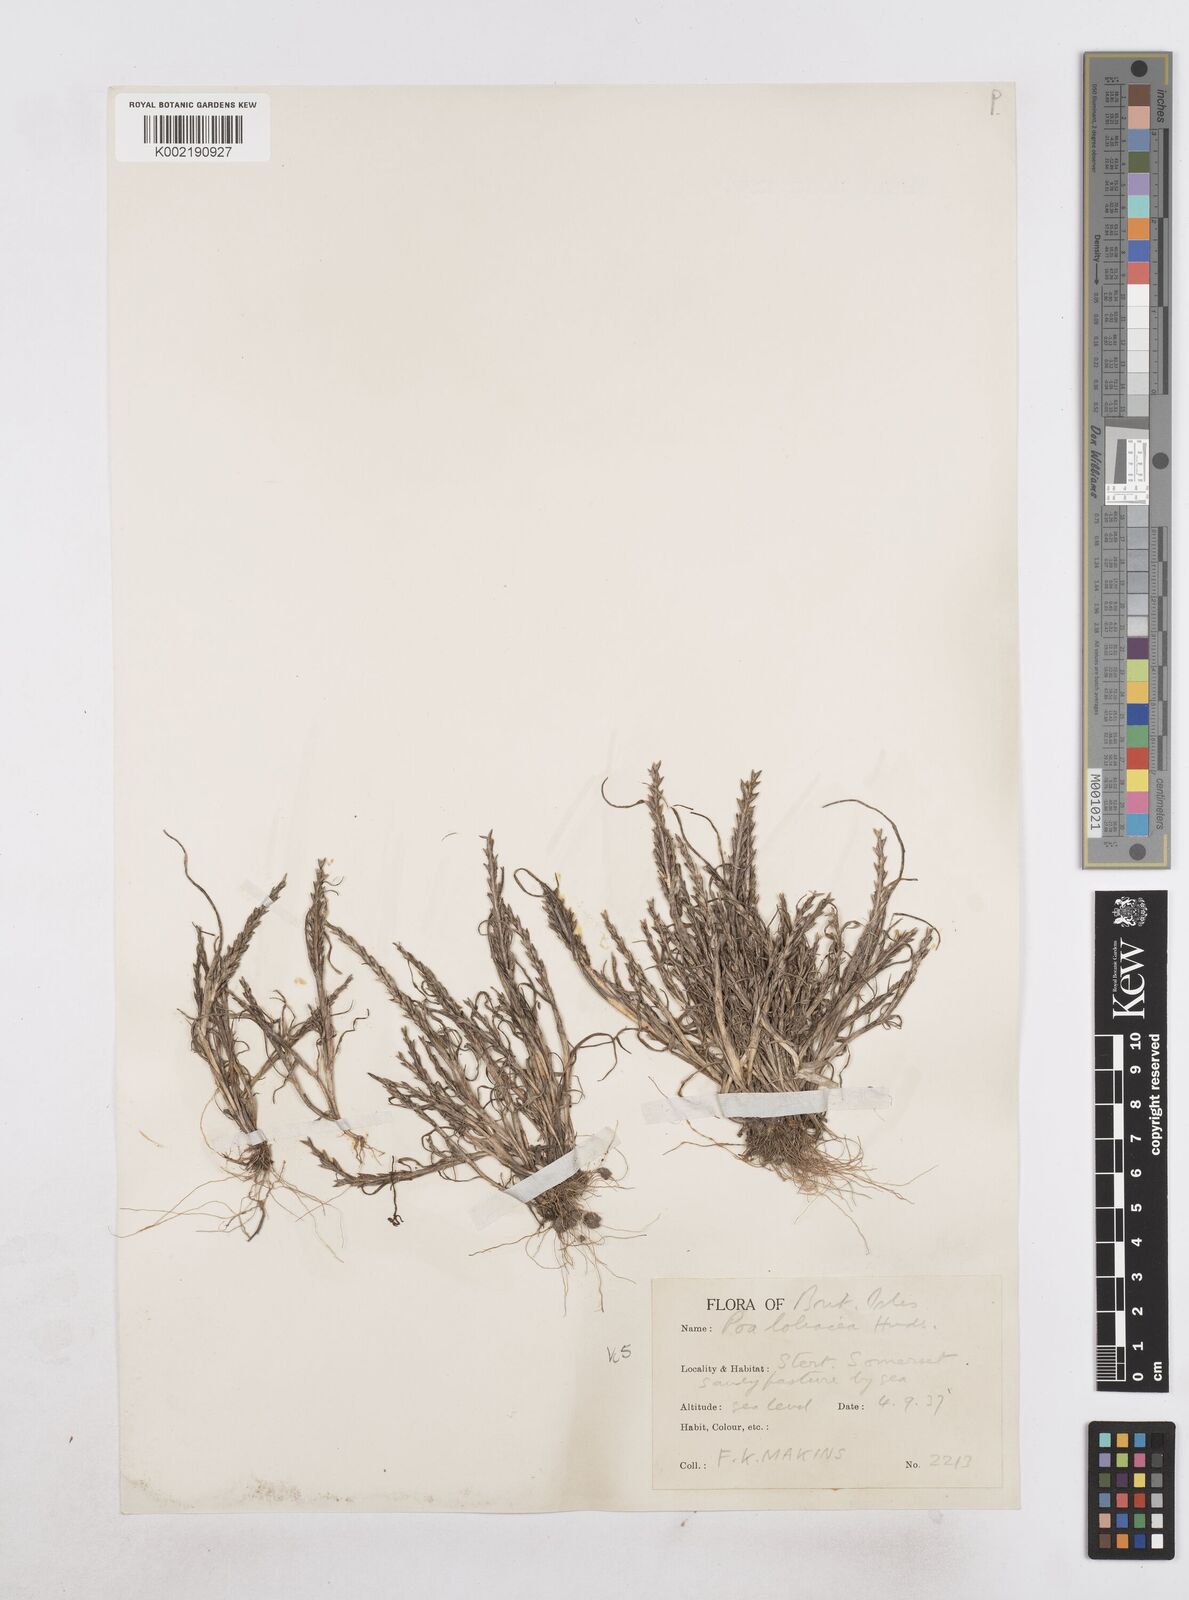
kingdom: Plantae
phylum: Tracheophyta
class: Liliopsida
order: Poales
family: Poaceae
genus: Catapodium
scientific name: Catapodium marinum
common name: Sea fern-grass
